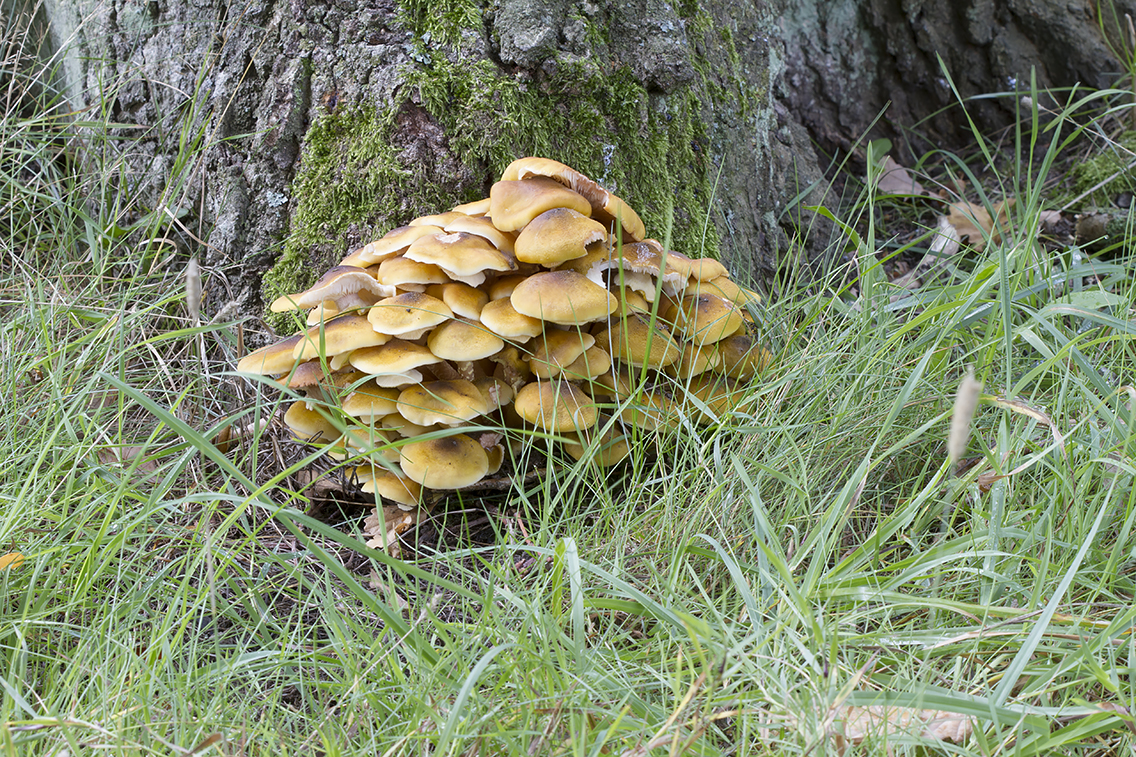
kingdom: Fungi
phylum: Basidiomycota
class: Agaricomycetes
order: Agaricales
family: Physalacriaceae
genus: Armillaria
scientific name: Armillaria mellea
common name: ægte honningsvamp
